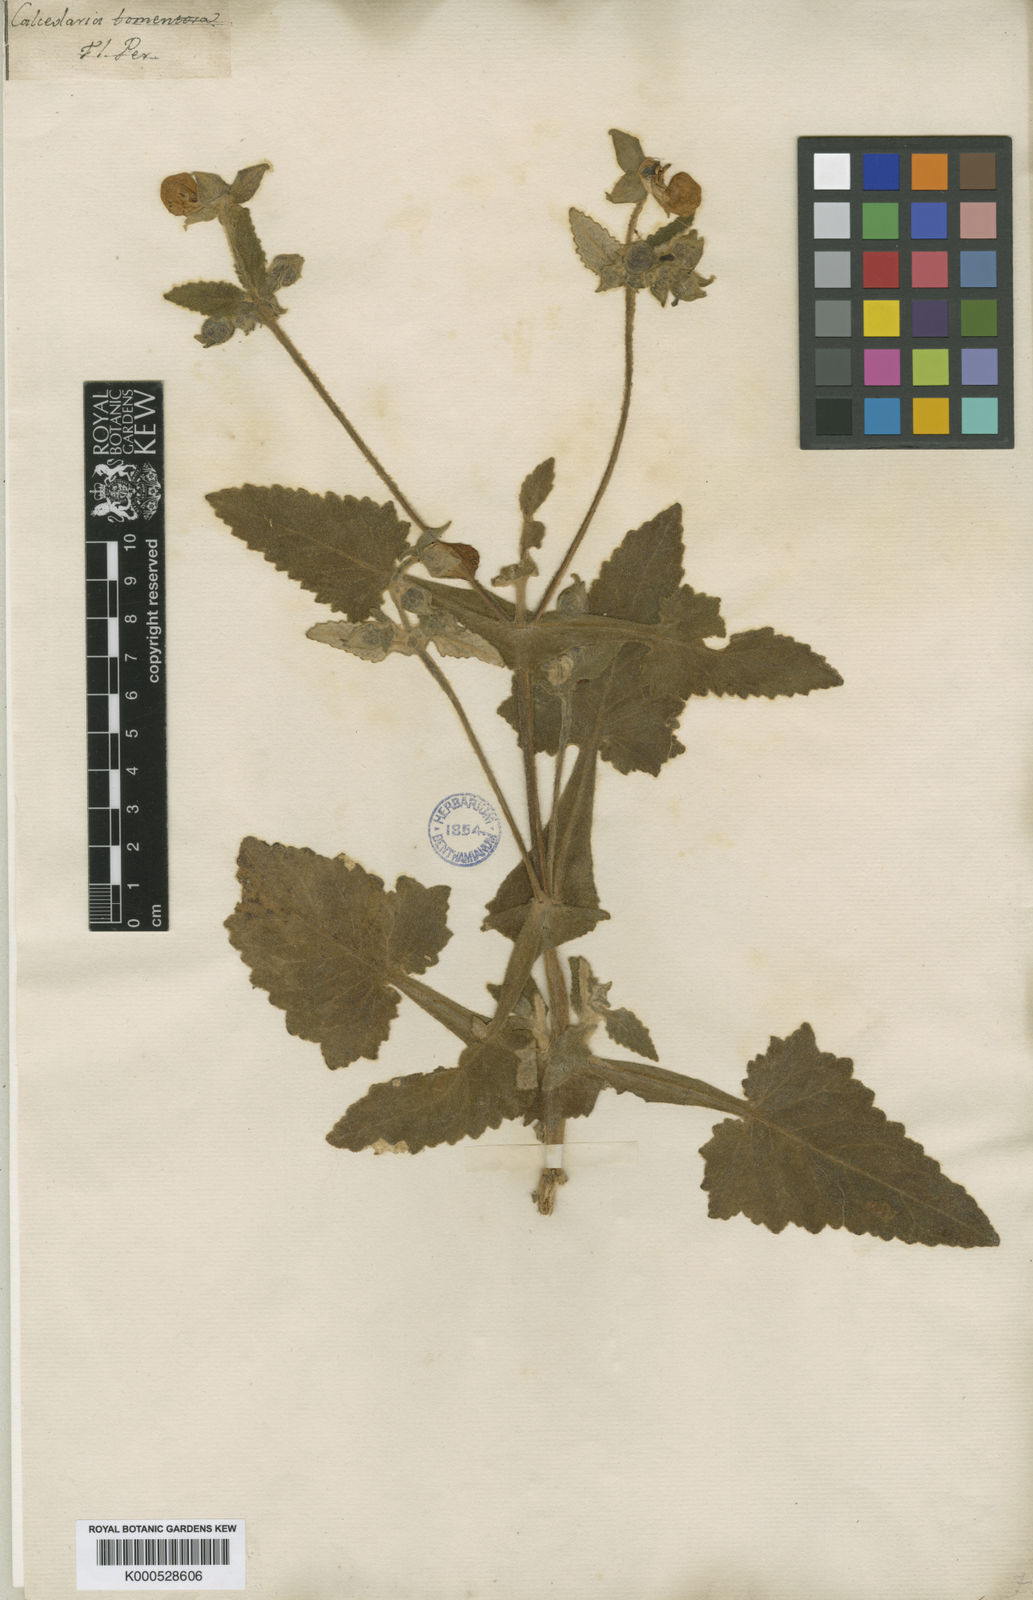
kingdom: Plantae
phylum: Tracheophyta
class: Magnoliopsida
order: Lamiales
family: Calceolariaceae
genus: Calceolaria
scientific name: Calceolaria tomentosa
